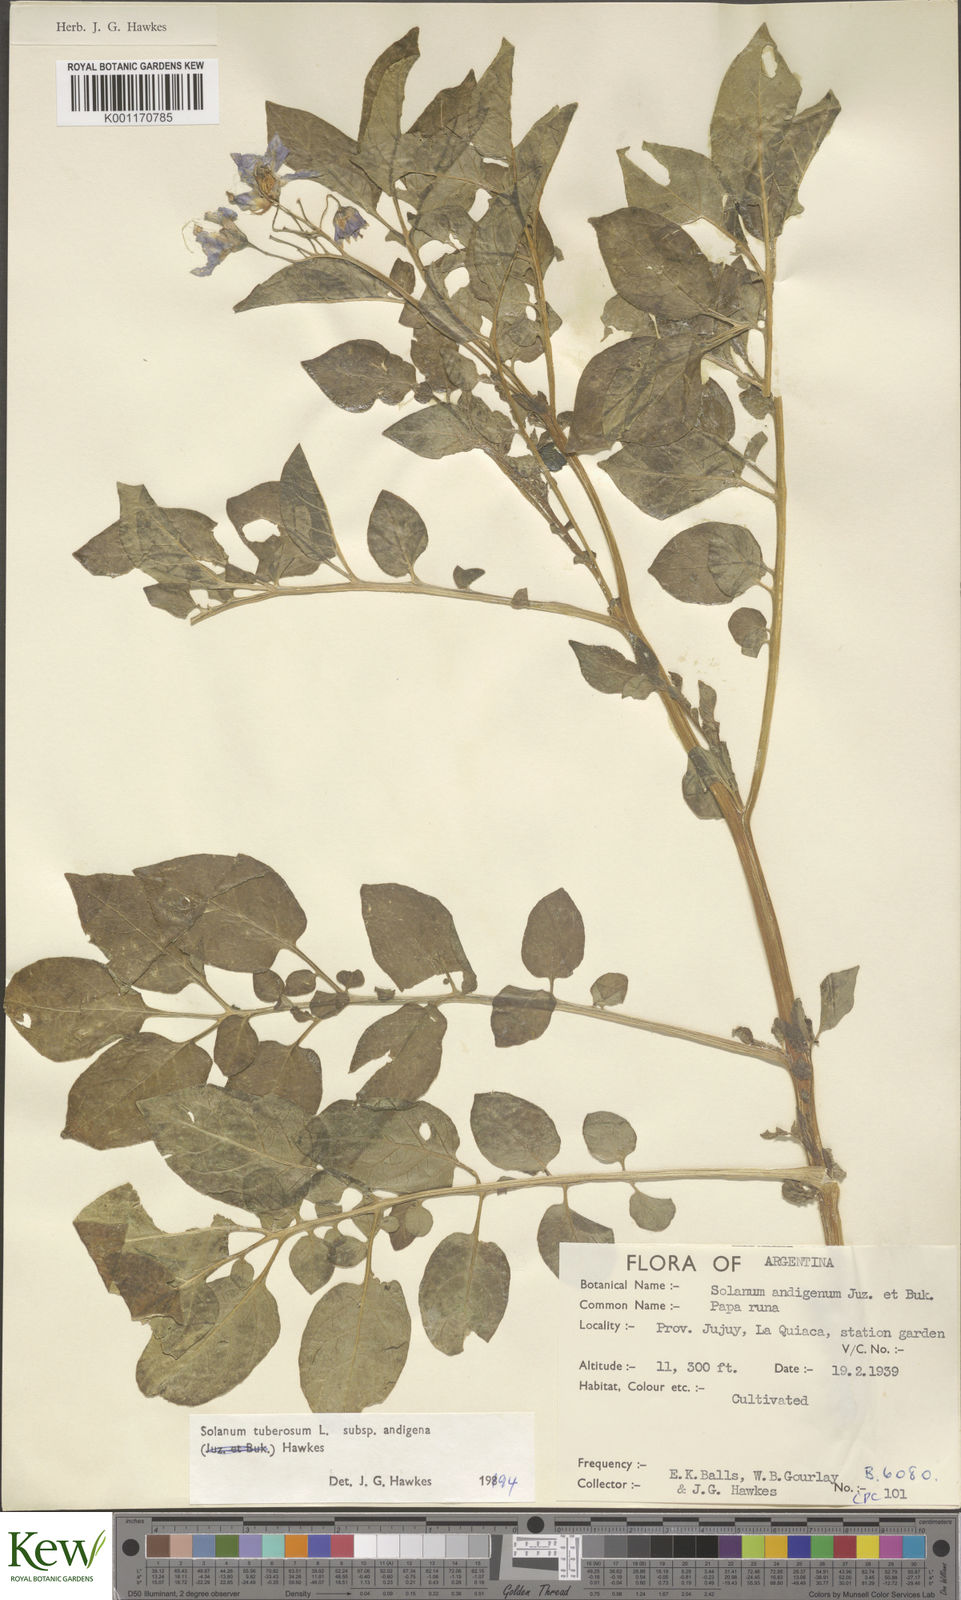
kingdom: Plantae
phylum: Tracheophyta
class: Magnoliopsida
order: Solanales
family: Solanaceae
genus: Solanum
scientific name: Solanum tuberosum
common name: Potato
